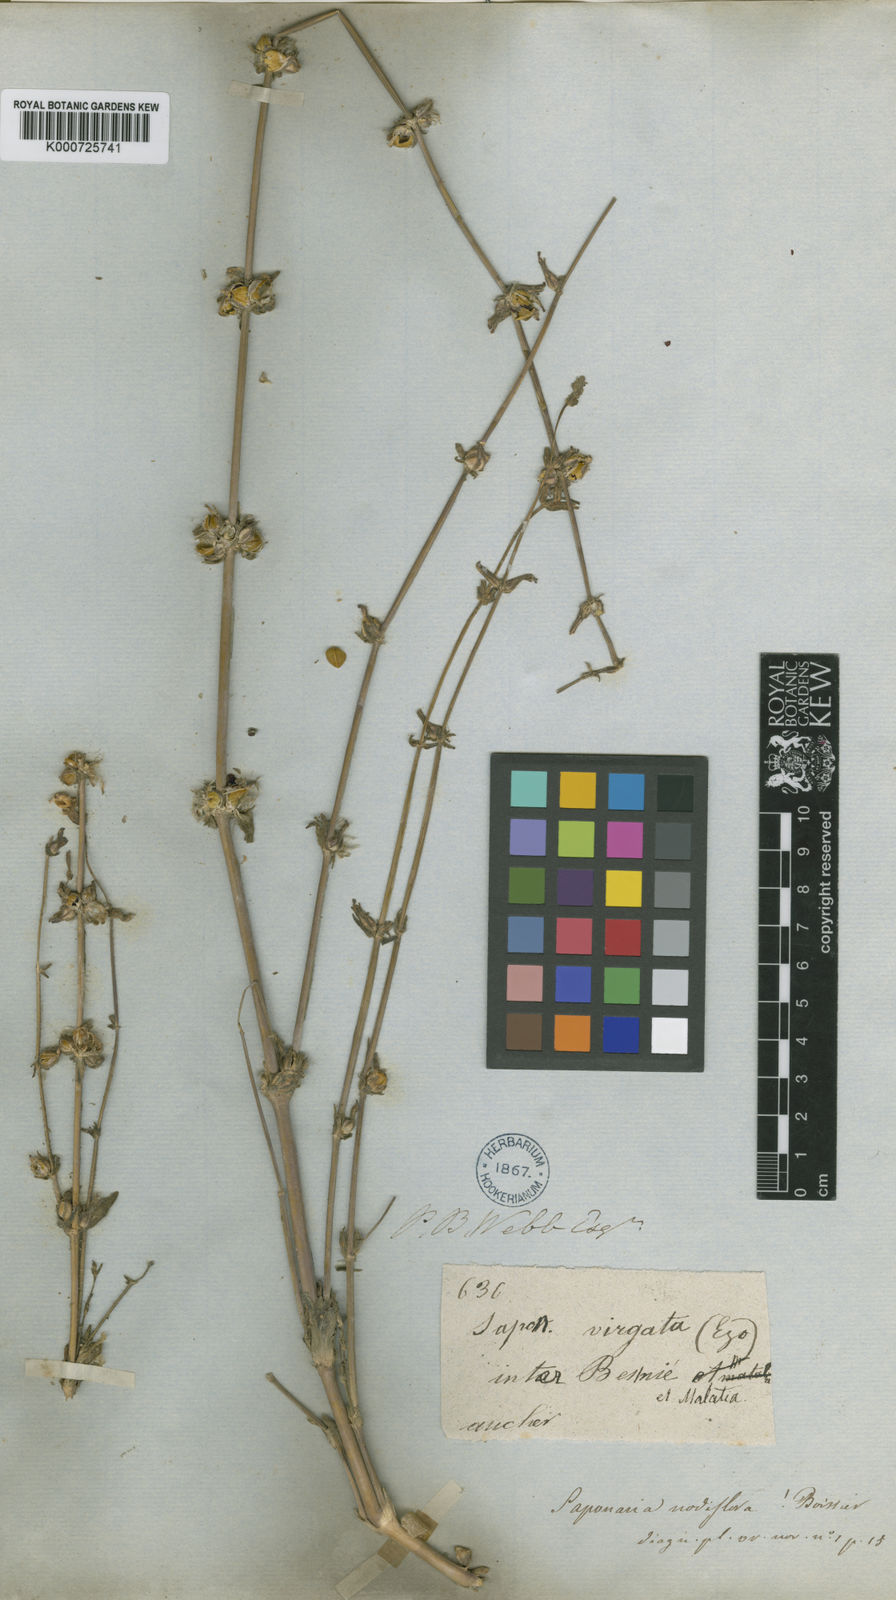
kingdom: Plantae
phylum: Tracheophyta
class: Magnoliopsida
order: Caryophyllales
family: Caryophyllaceae
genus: Gypsophila
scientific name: Gypsophila nodiflora
